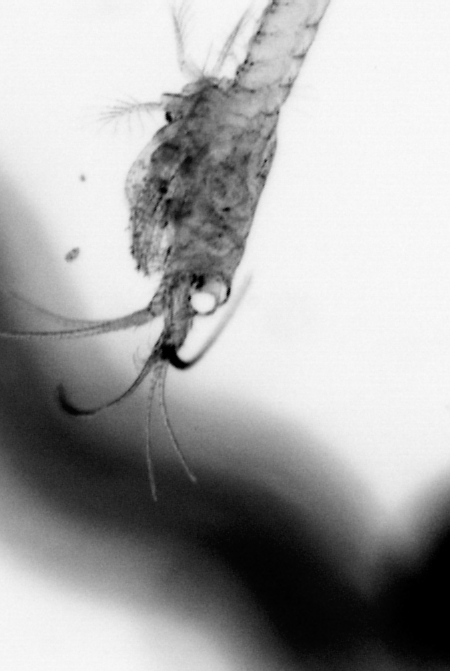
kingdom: Animalia
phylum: Annelida
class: Polychaeta
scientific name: Polychaeta
